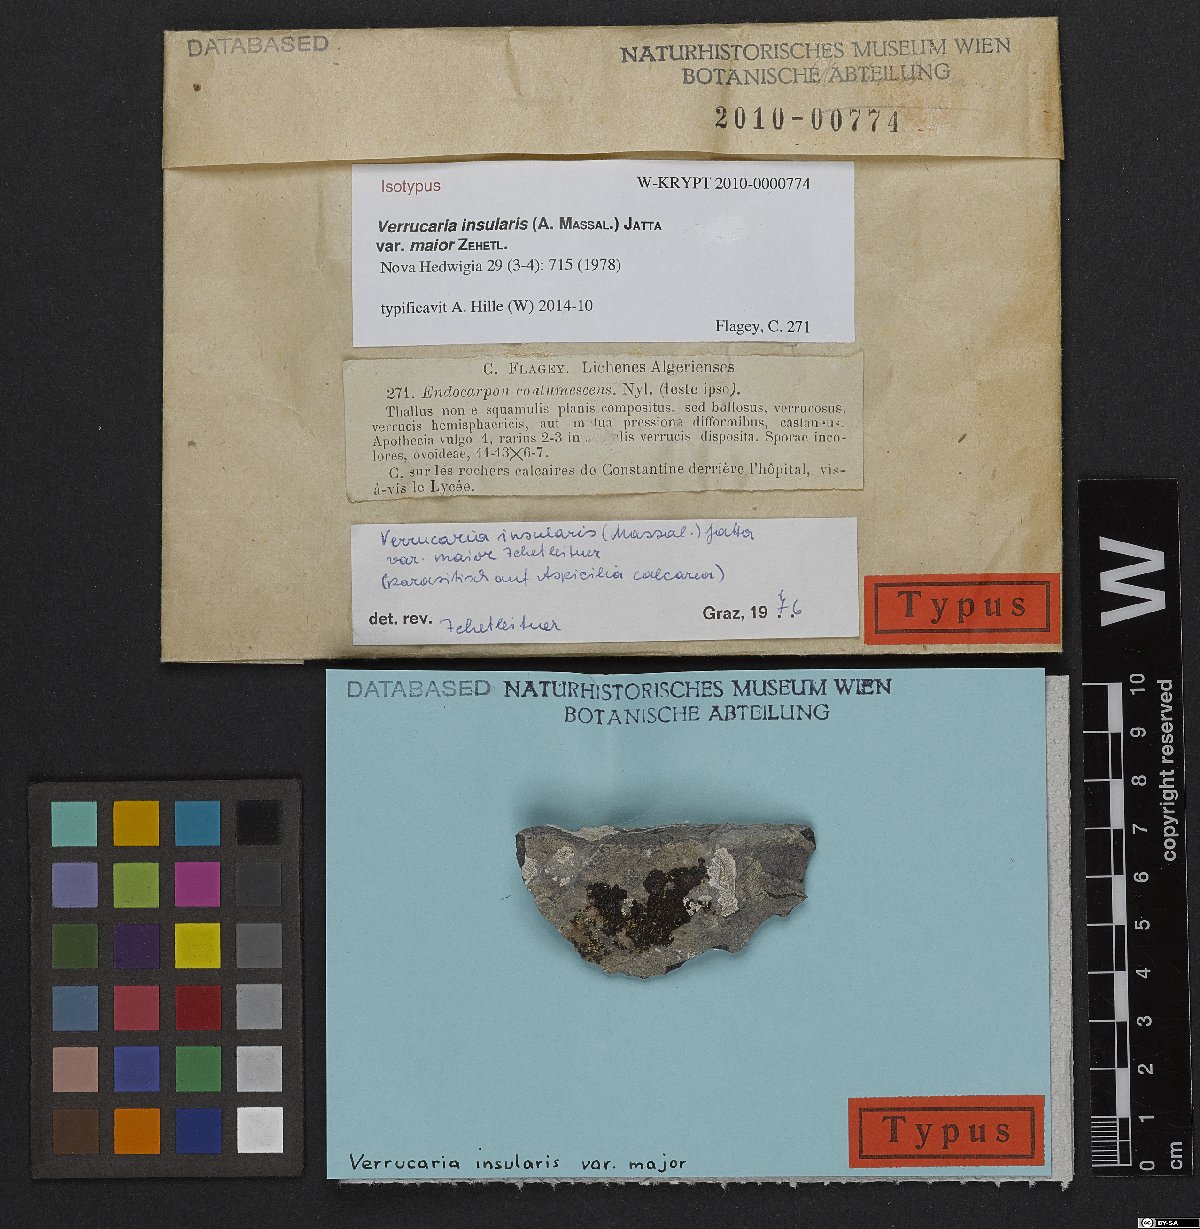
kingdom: Fungi
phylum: Ascomycota
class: Eurotiomycetes
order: Verrucariales
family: Verrucariaceae
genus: Heteroplacidium
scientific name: Heteroplacidium fusculum
